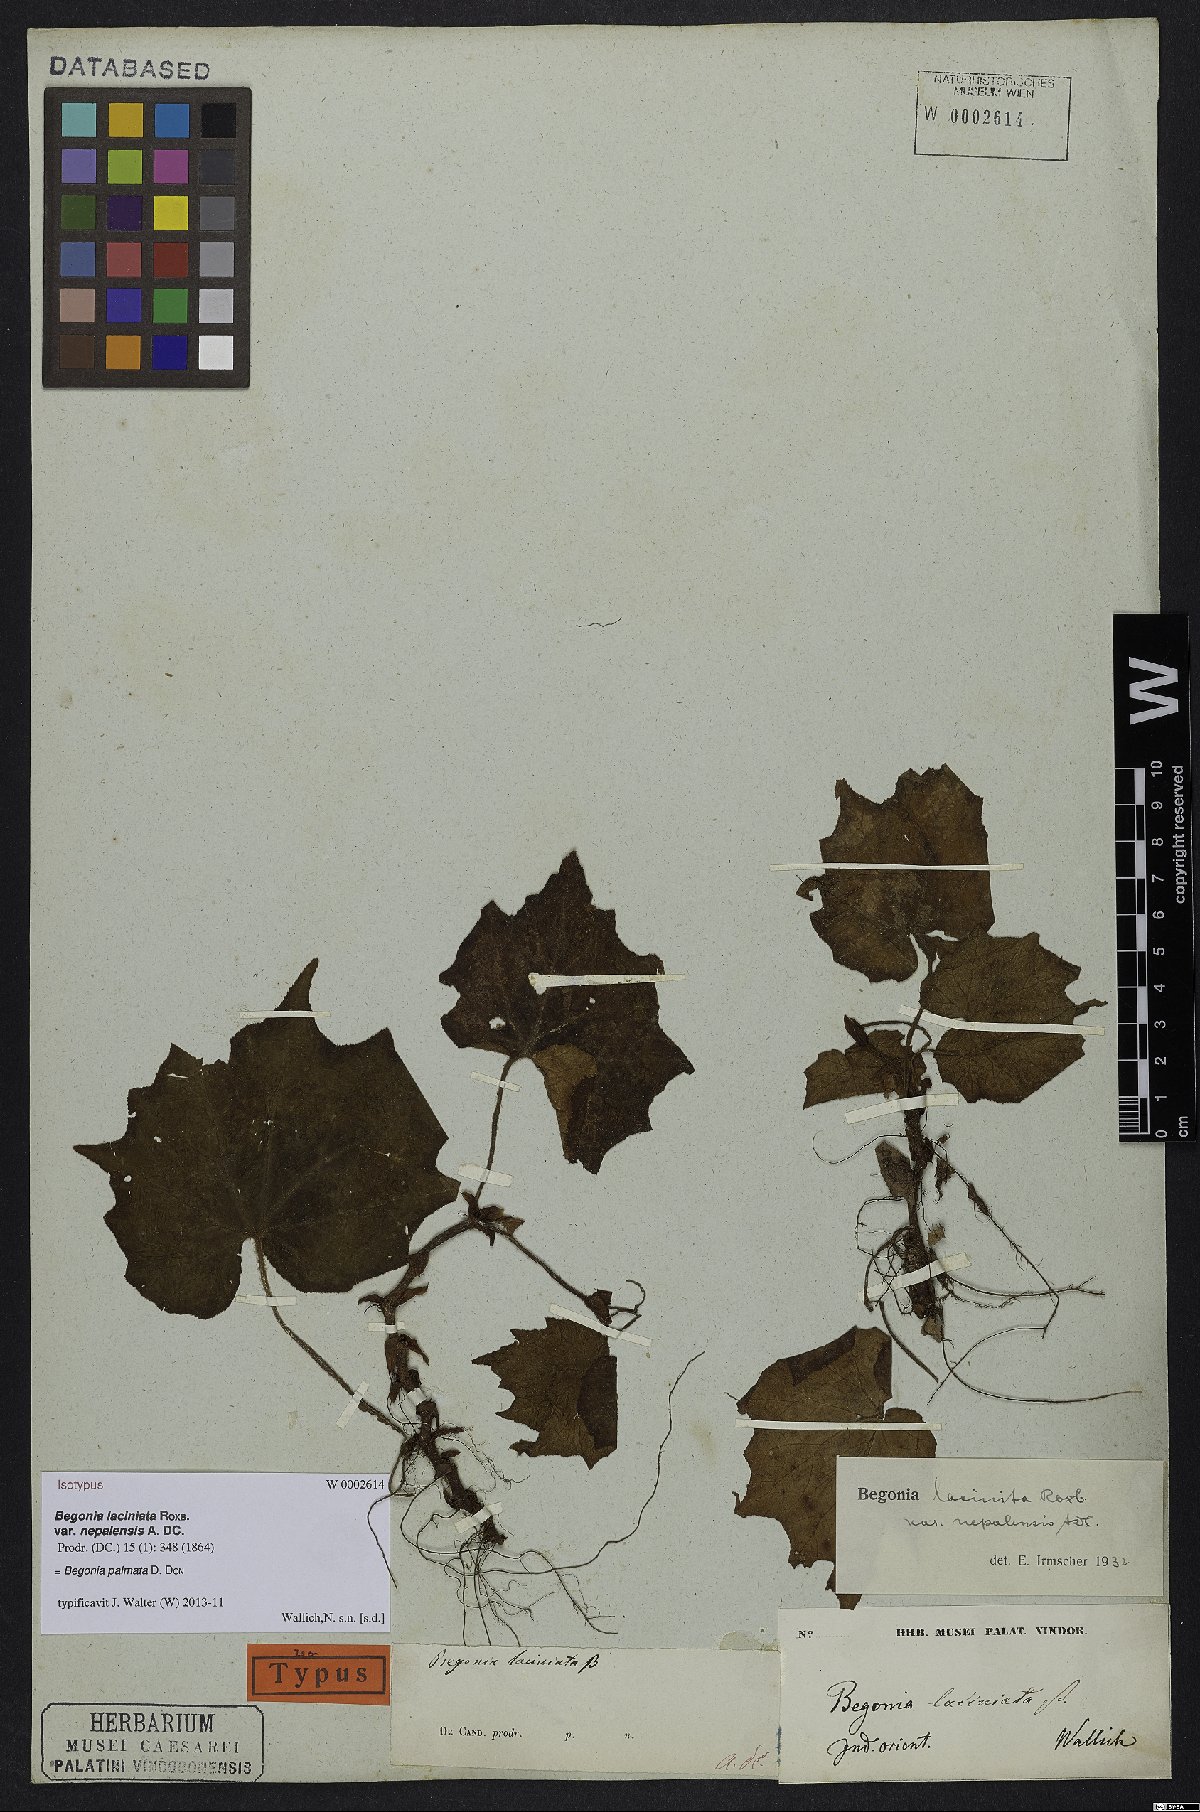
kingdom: Plantae
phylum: Tracheophyta
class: Magnoliopsida
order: Cucurbitales
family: Begoniaceae
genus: Begonia
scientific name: Begonia palmata
